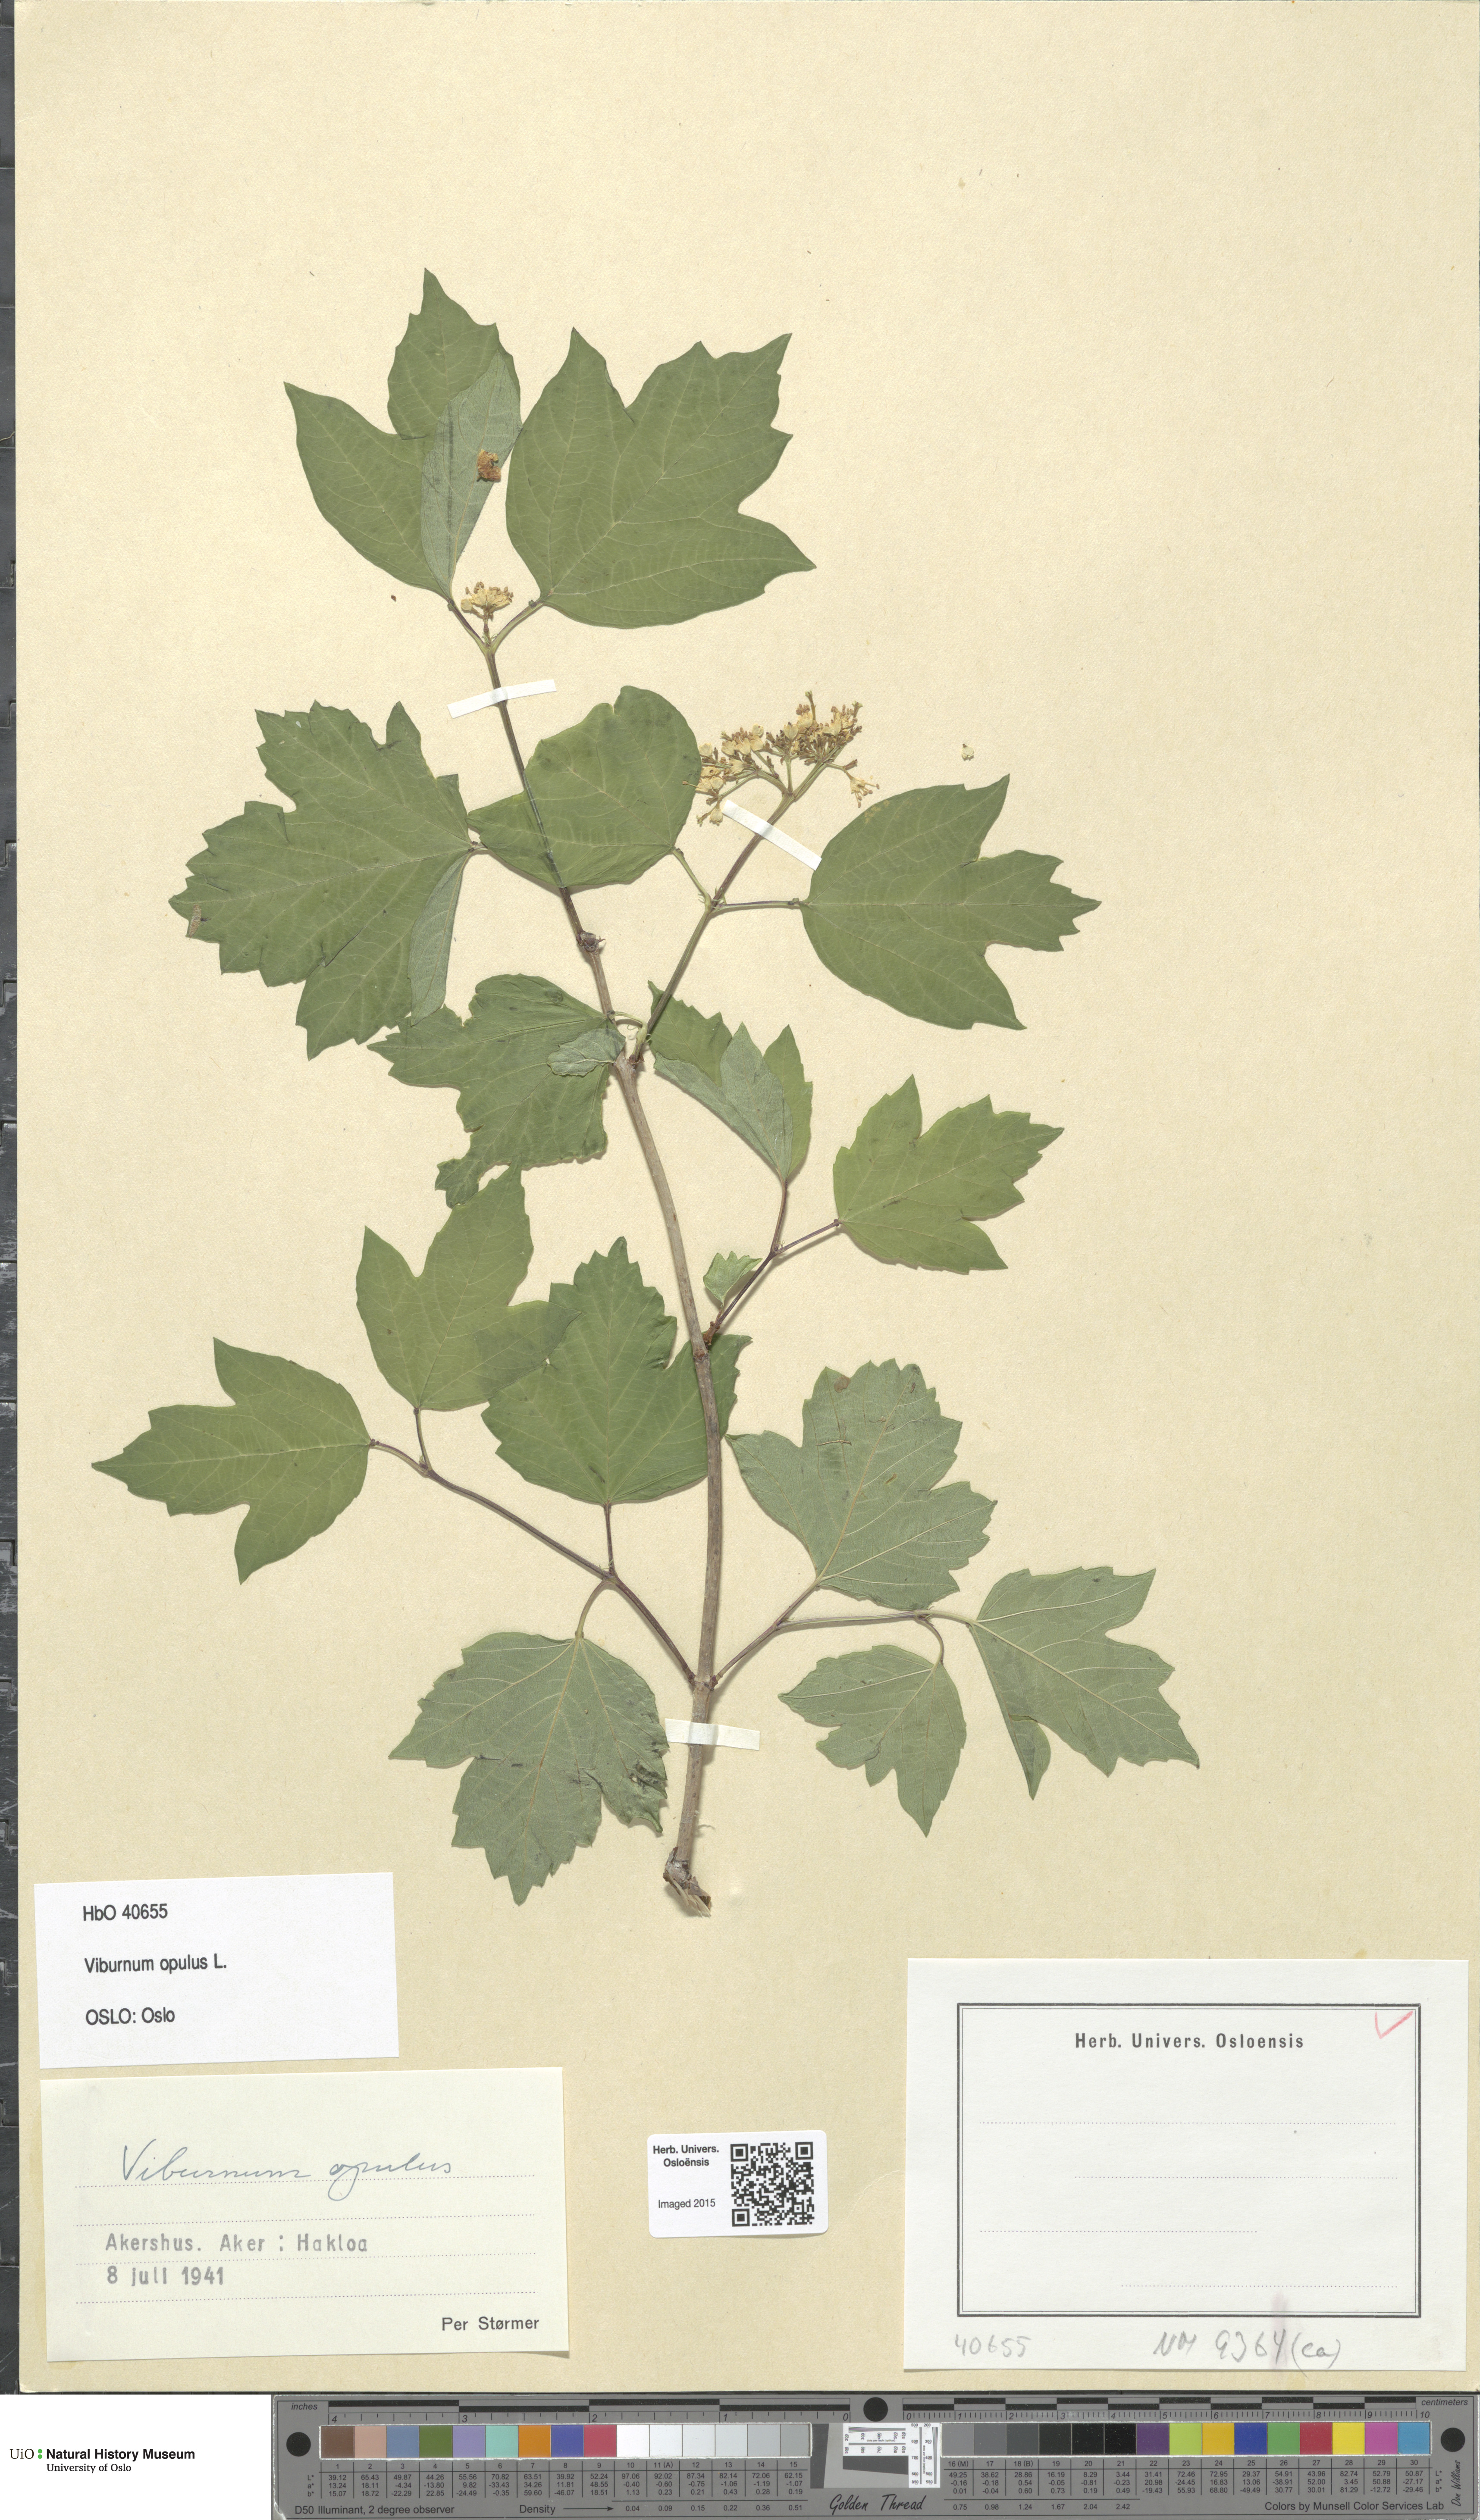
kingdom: Plantae
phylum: Tracheophyta
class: Magnoliopsida
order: Dipsacales
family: Viburnaceae
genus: Viburnum
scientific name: Viburnum opulus
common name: Guelder-rose
